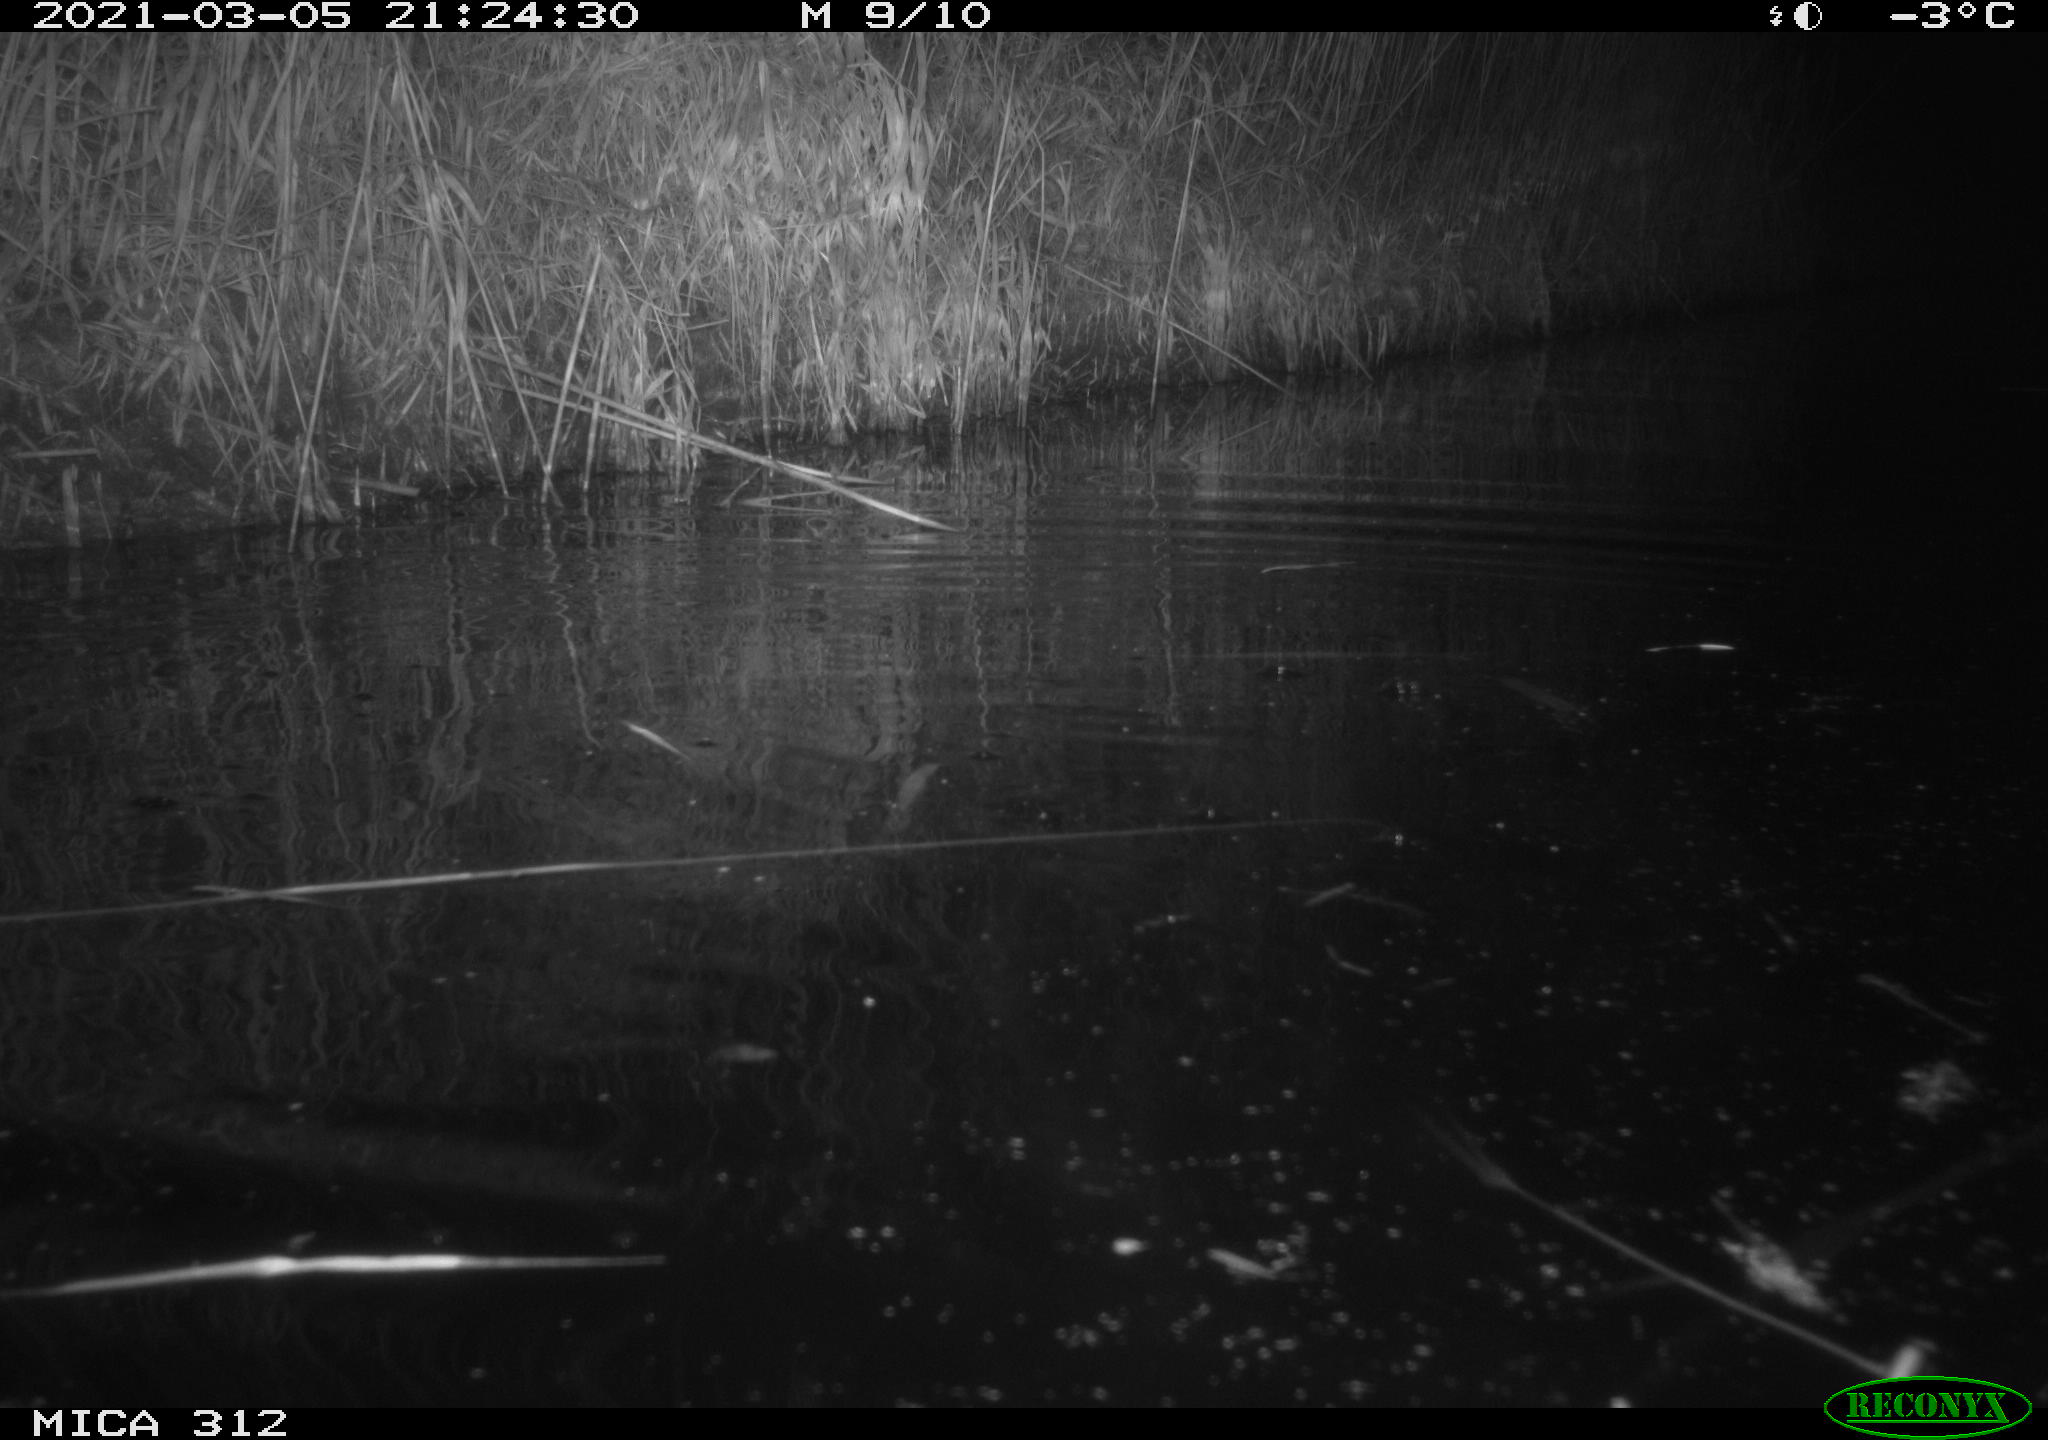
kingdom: Animalia
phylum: Chordata
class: Mammalia
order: Rodentia
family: Cricetidae
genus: Ondatra
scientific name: Ondatra zibethicus
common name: Muskrat
